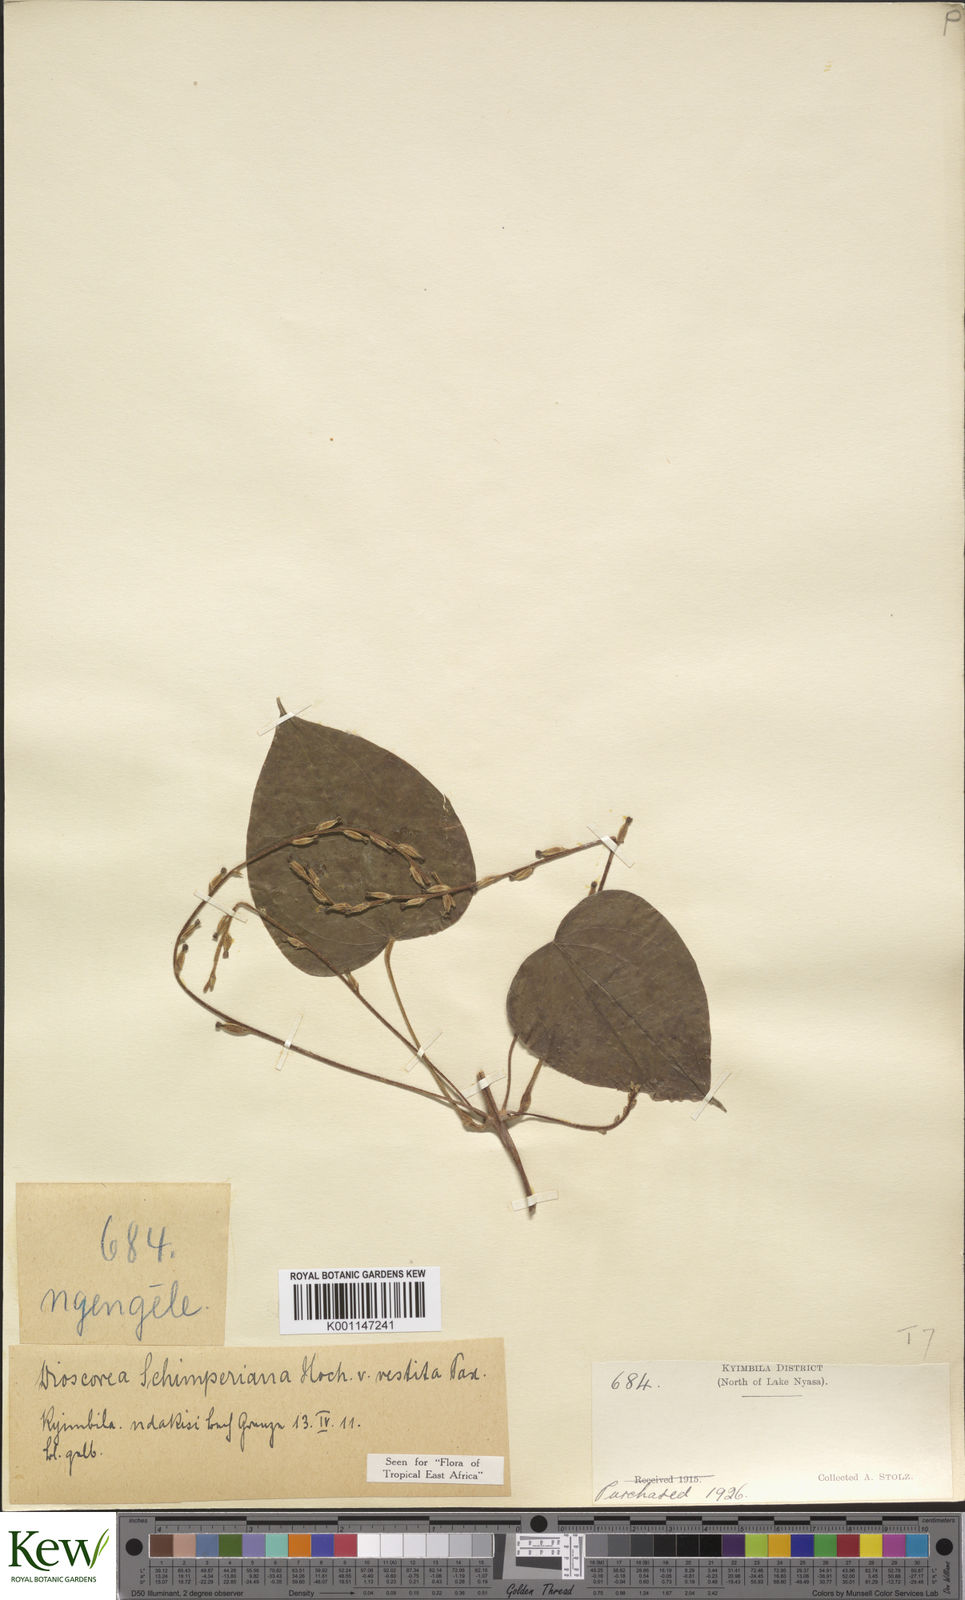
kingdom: Plantae
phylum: Tracheophyta
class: Liliopsida
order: Dioscoreales
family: Dioscoreaceae
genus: Dioscorea
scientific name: Dioscorea schimperiana
